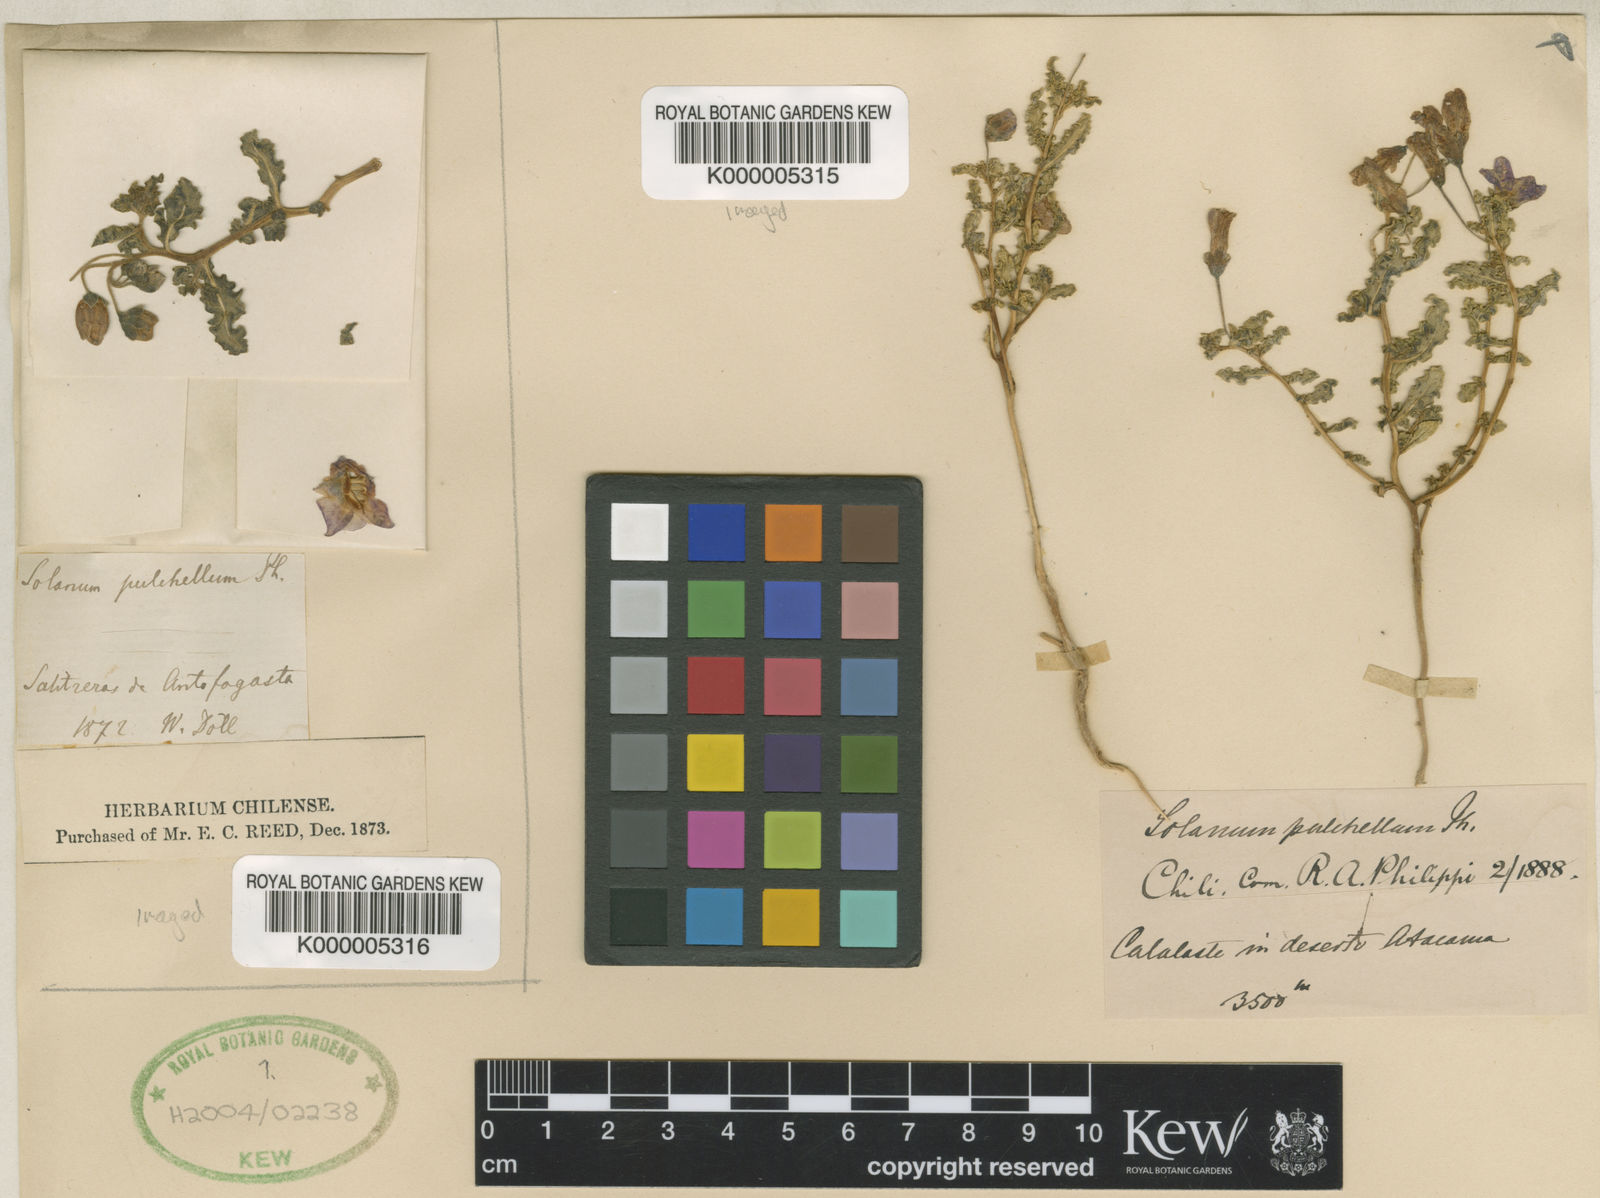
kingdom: Plantae
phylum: Tracheophyta
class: Magnoliopsida
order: Solanales
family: Solanaceae
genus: Solanum
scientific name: Solanum sinuatirecurvum
